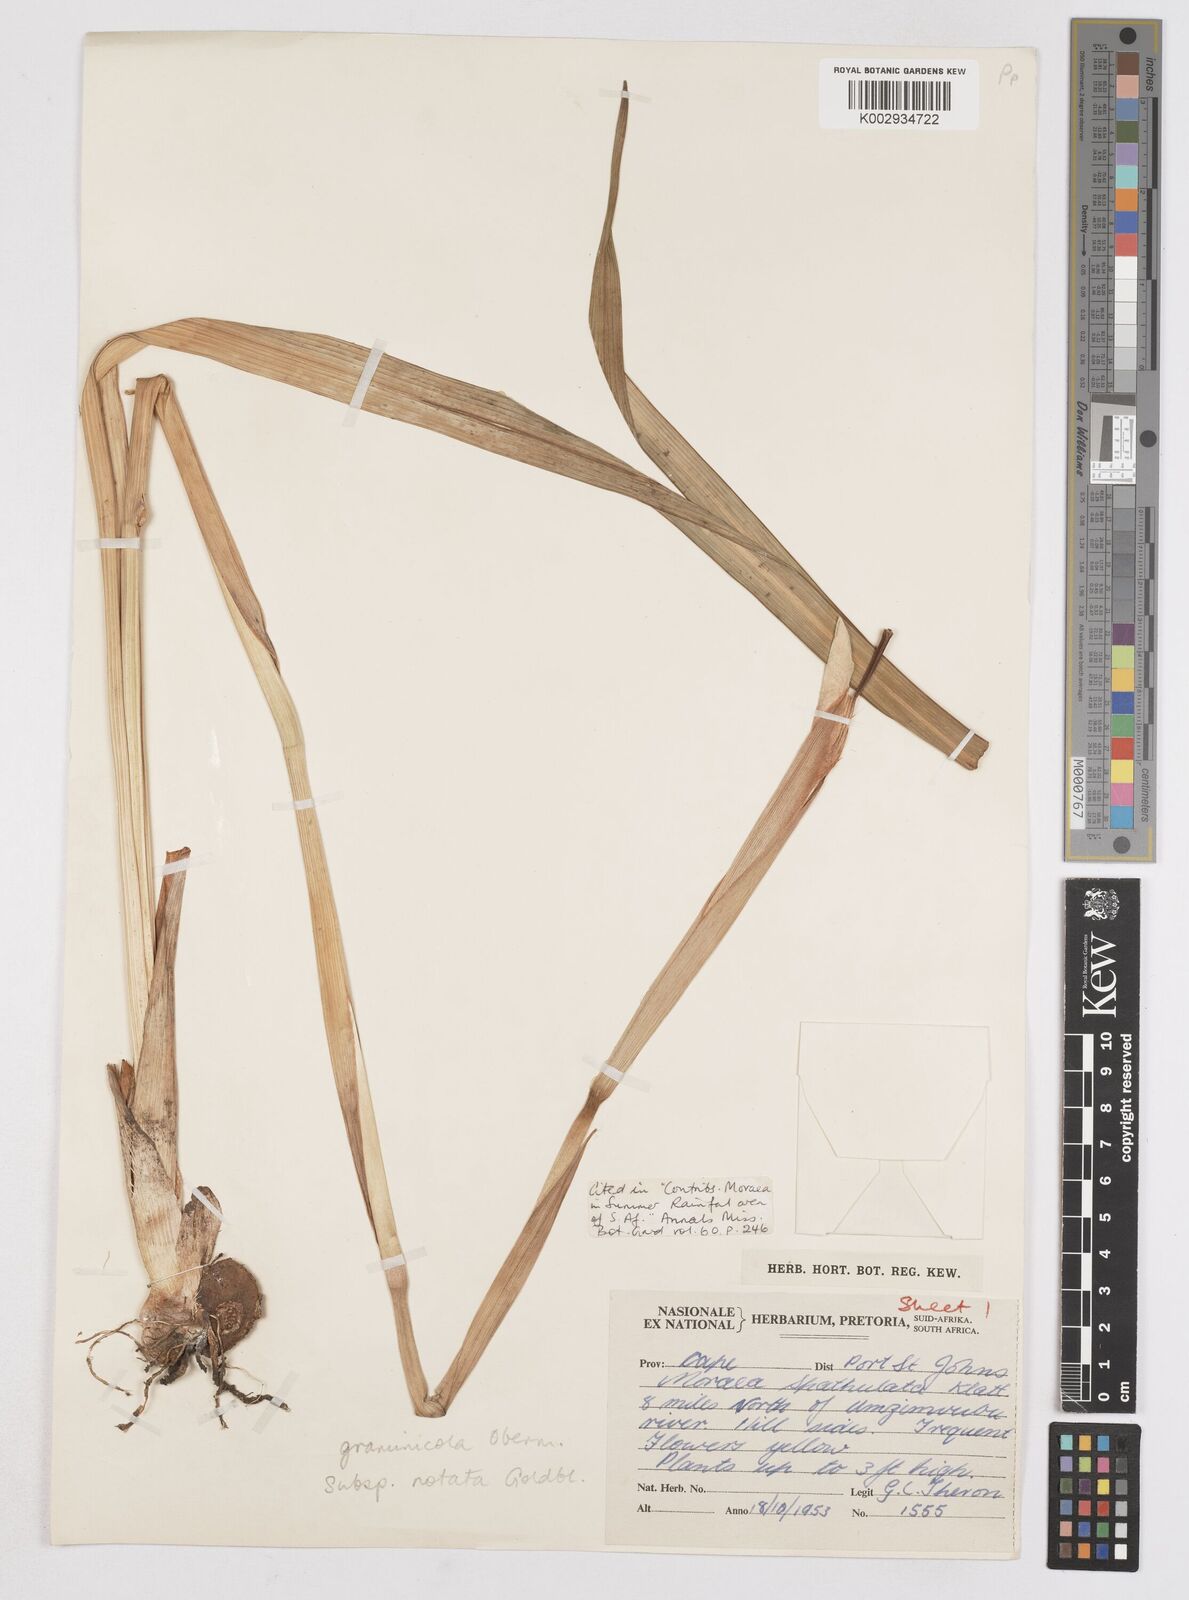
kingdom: Plantae
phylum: Tracheophyta
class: Liliopsida
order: Asparagales
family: Iridaceae
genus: Moraea
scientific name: Moraea graminicola
